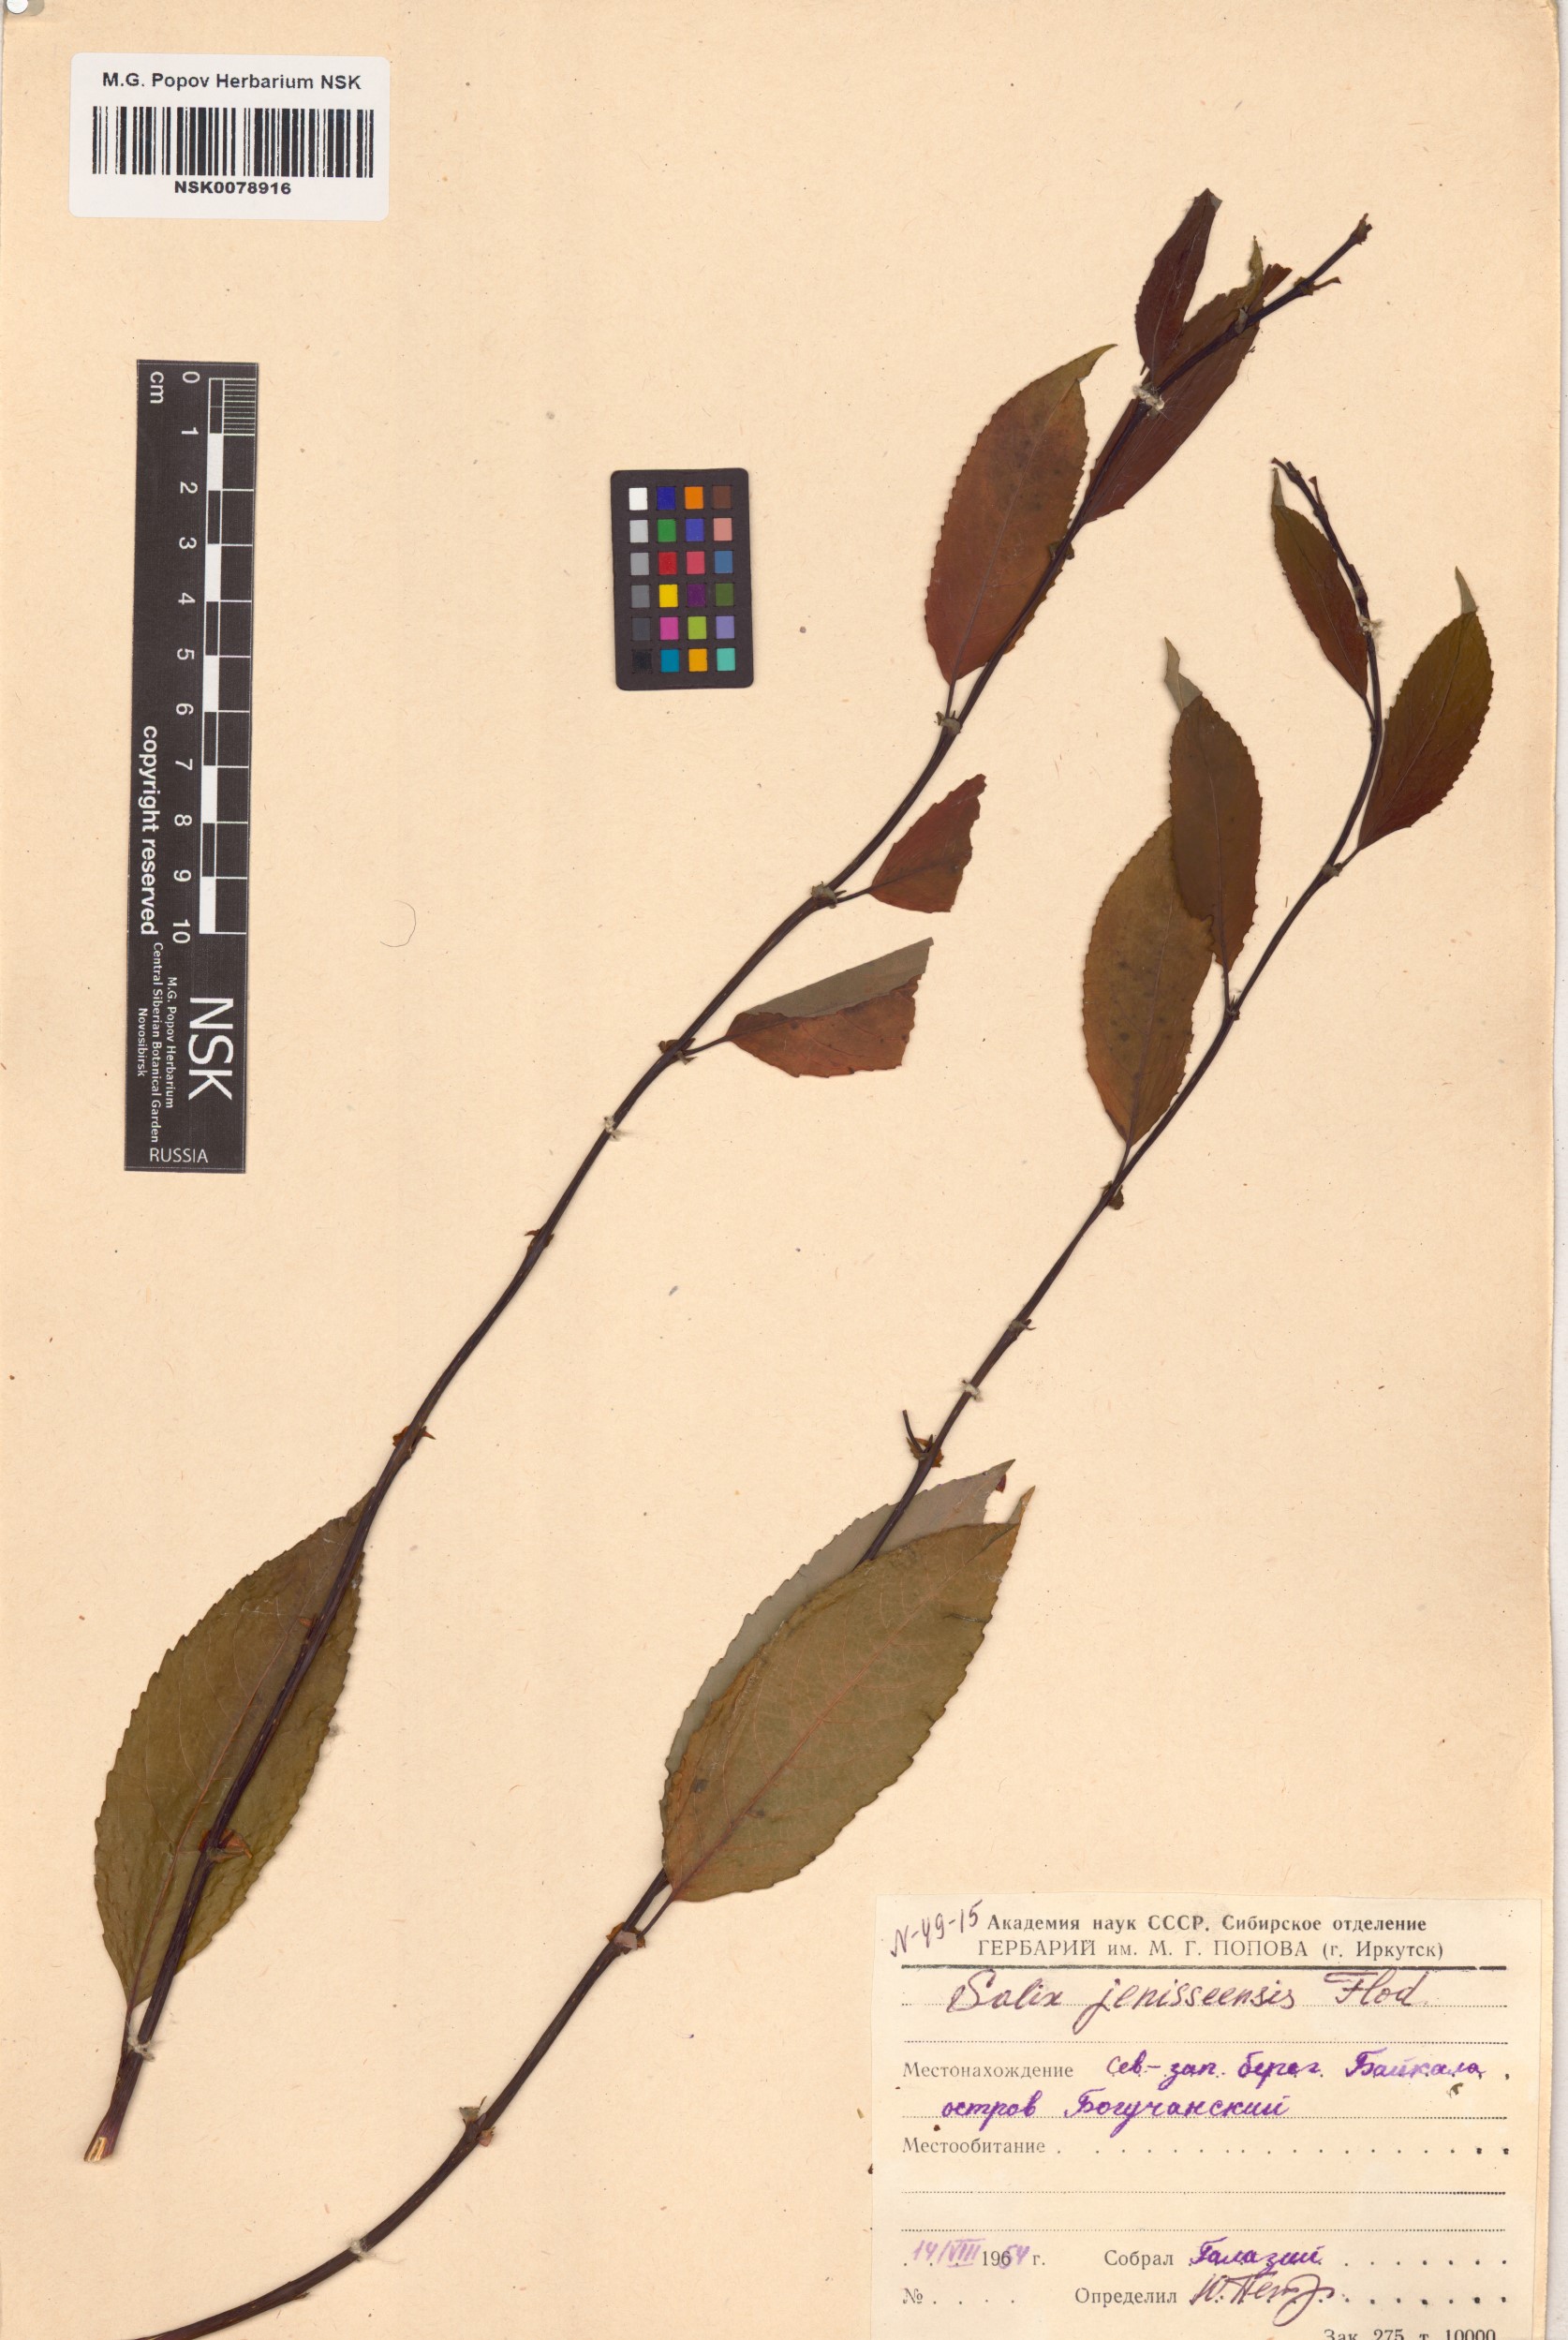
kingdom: Plantae
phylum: Tracheophyta
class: Magnoliopsida
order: Malpighiales
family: Salicaceae
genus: Salix
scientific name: Salix jenisseensis
